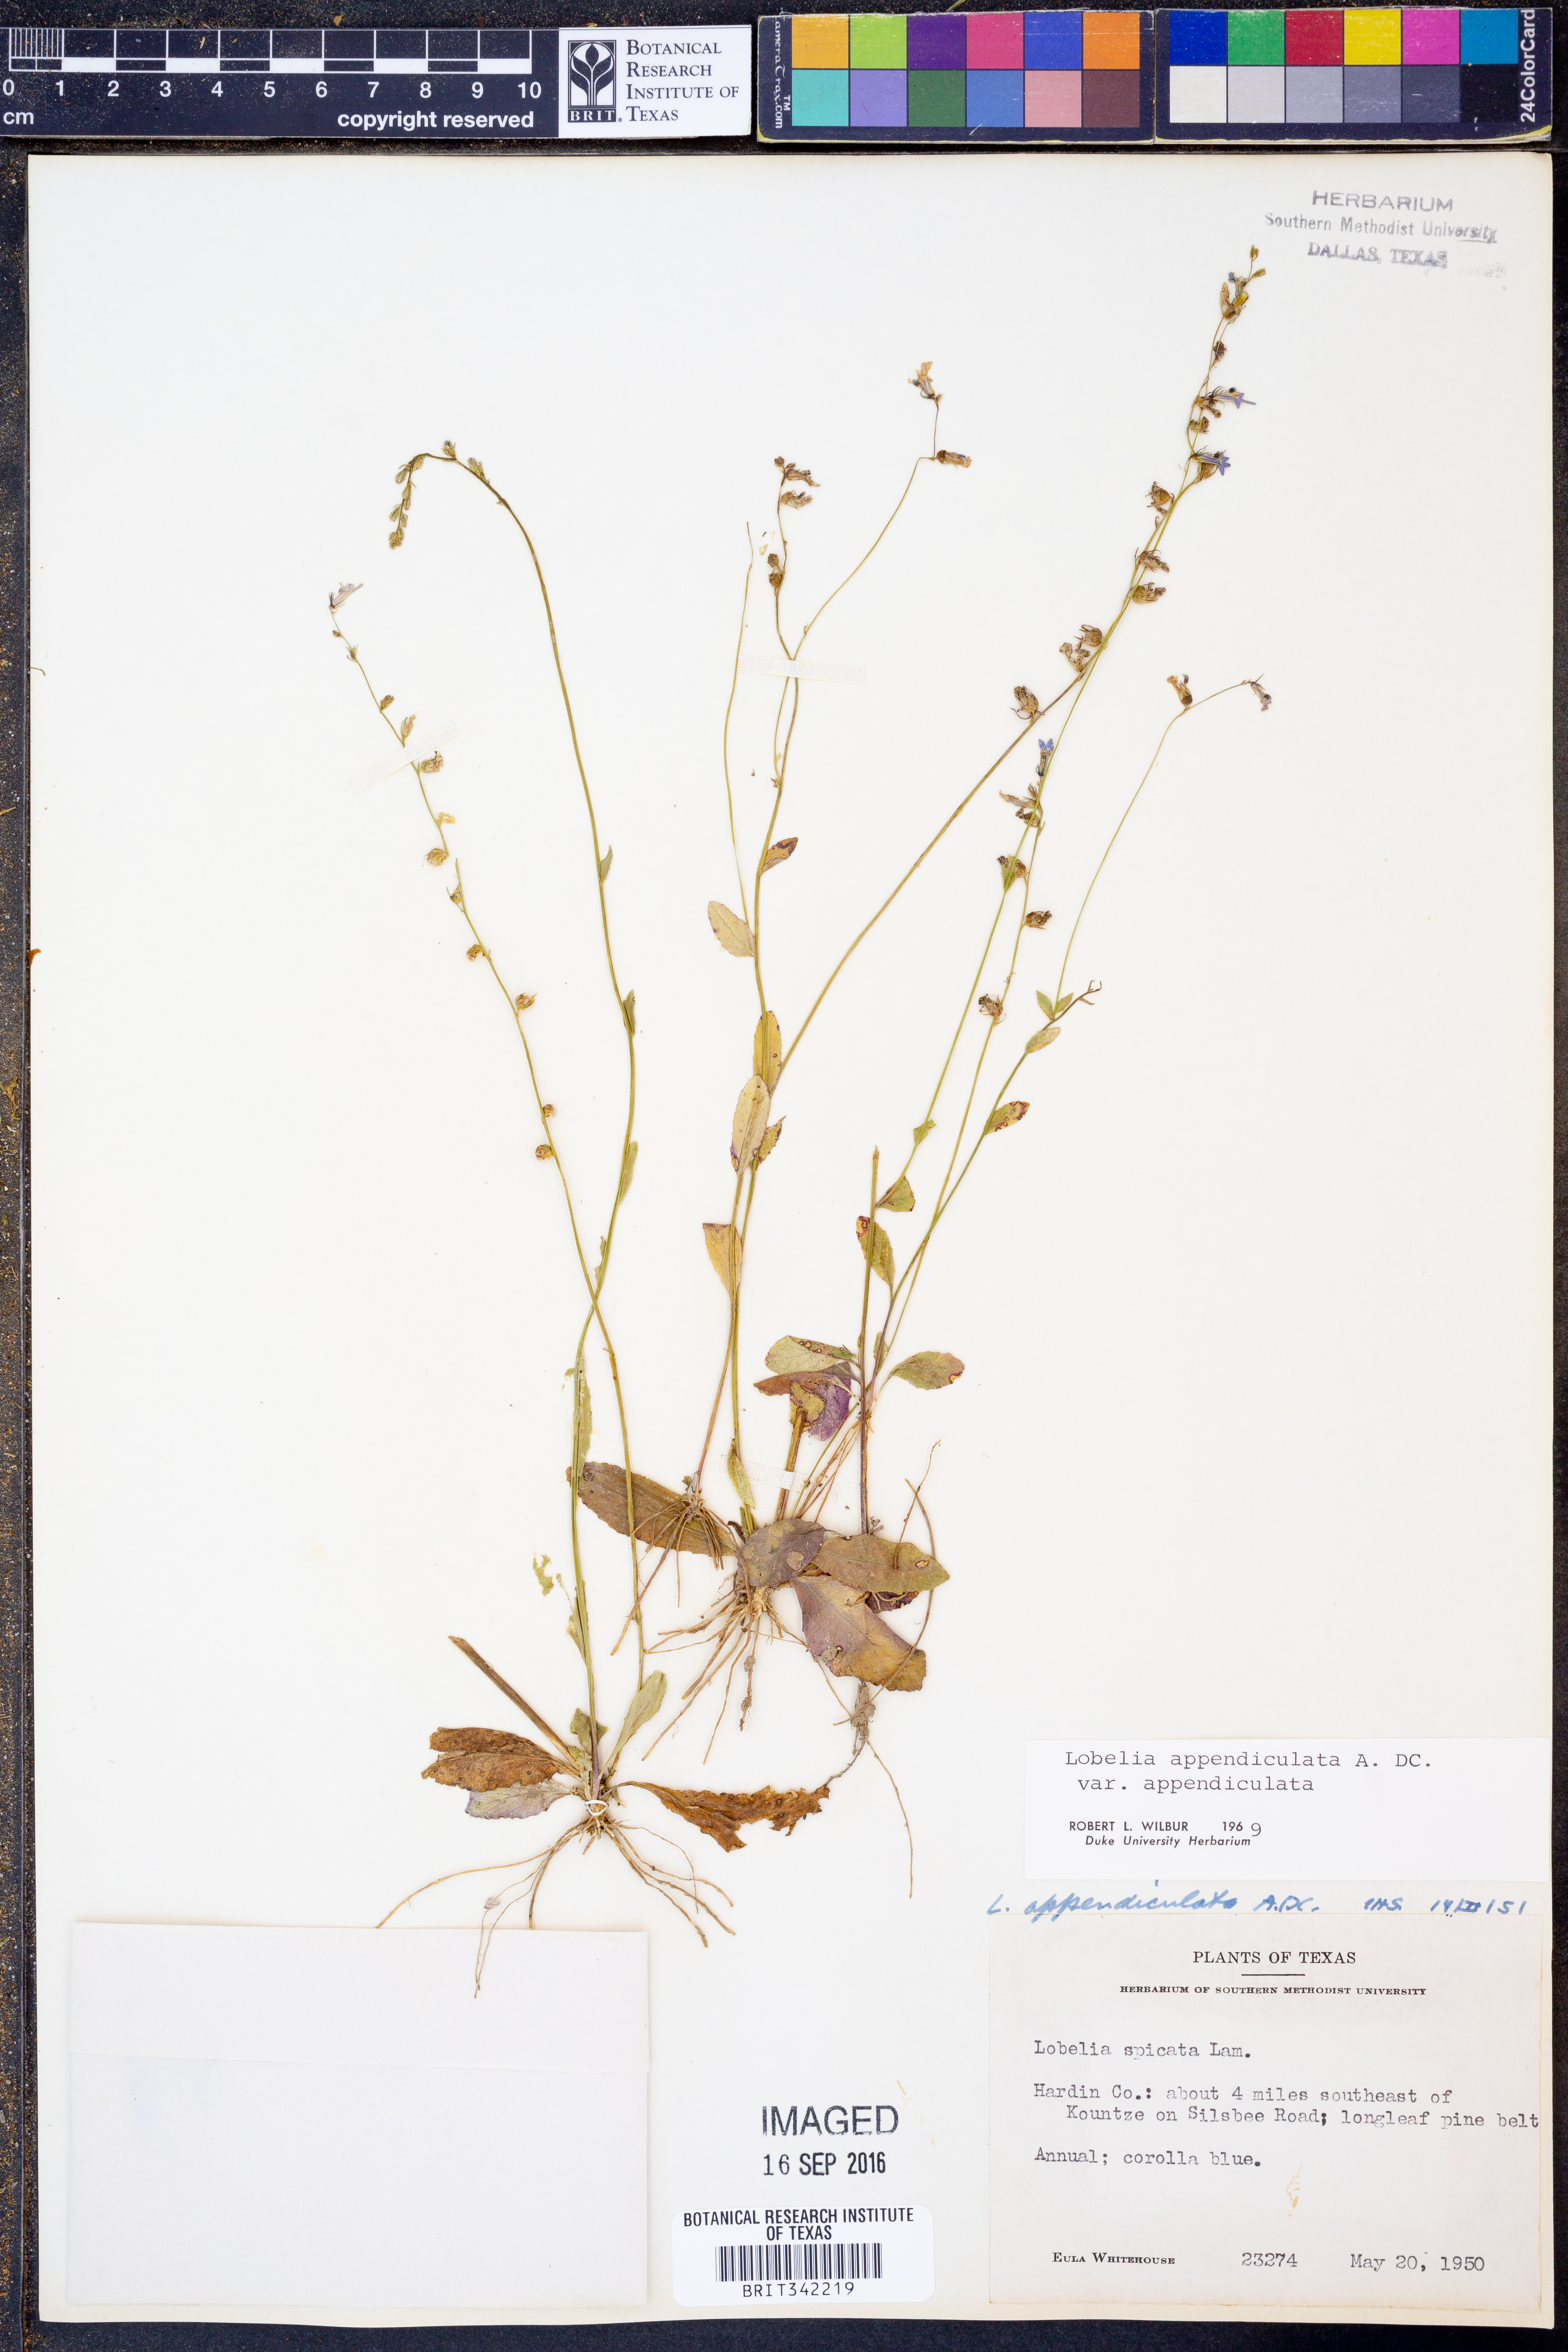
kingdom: Plantae
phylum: Tracheophyta
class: Magnoliopsida
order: Asterales
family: Campanulaceae
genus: Lobelia
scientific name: Lobelia appendiculata
